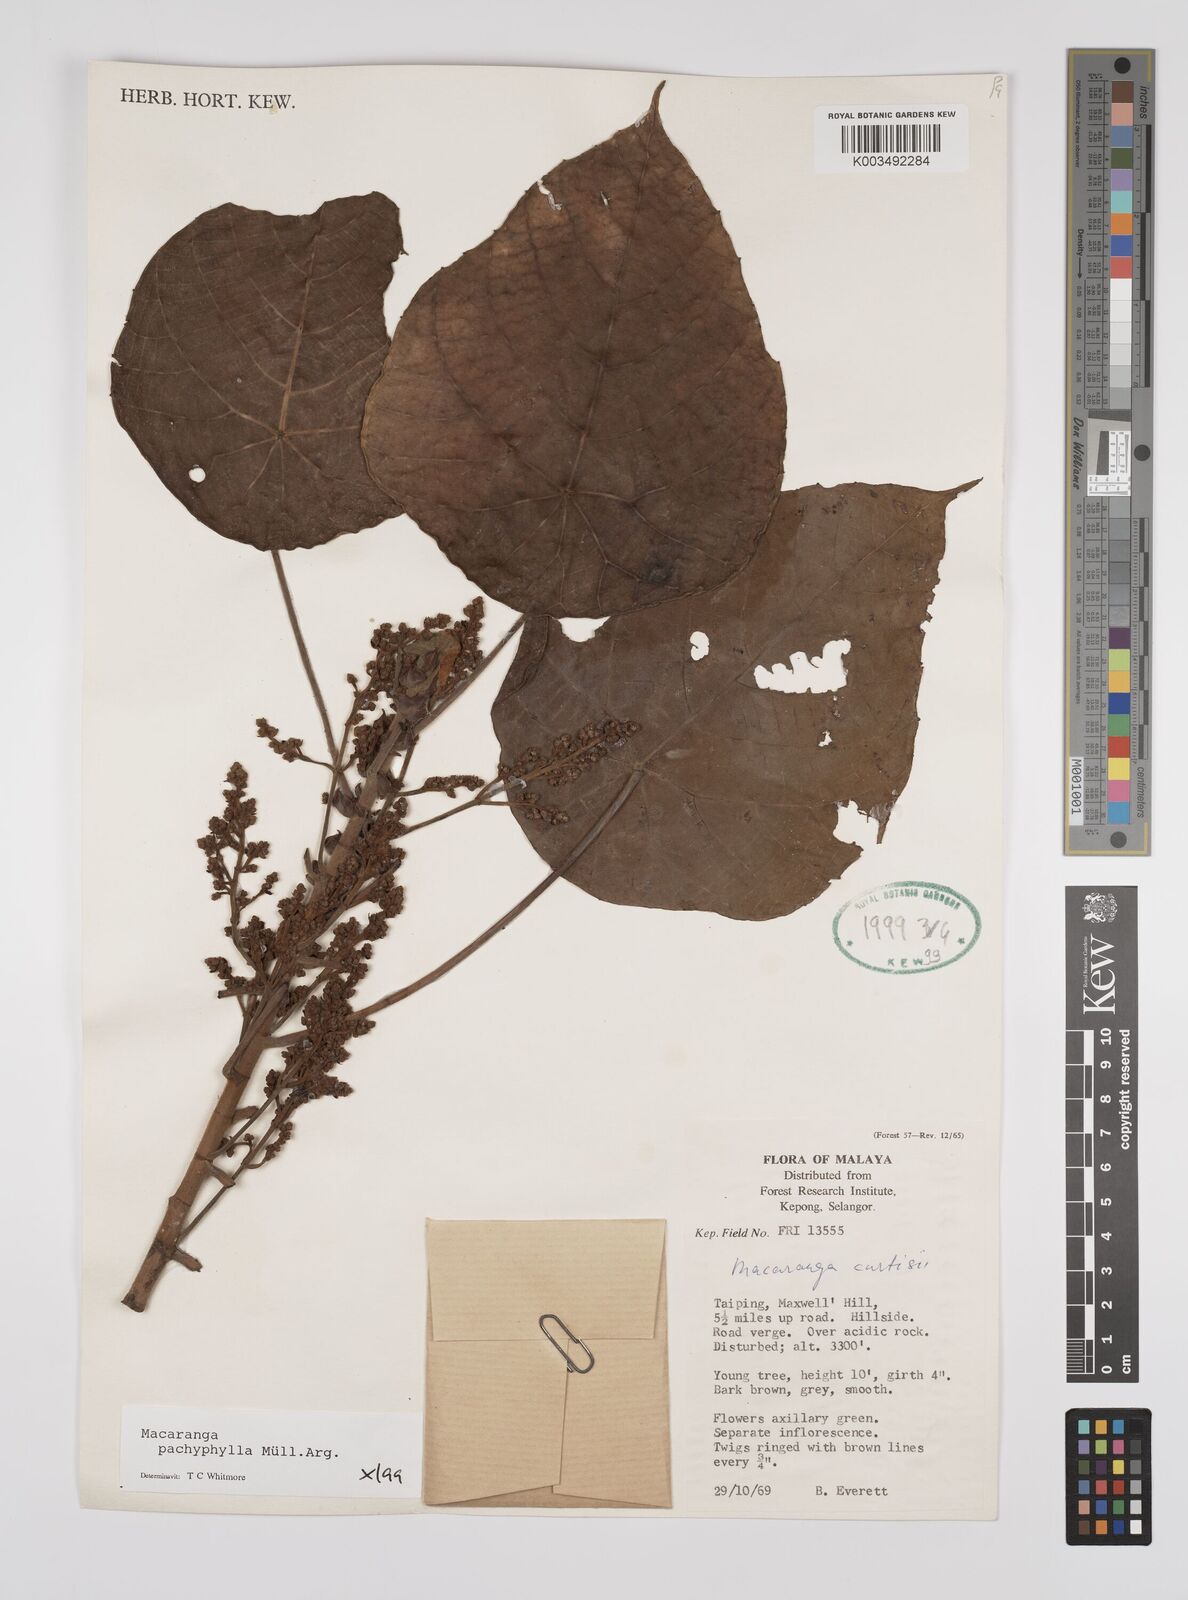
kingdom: Plantae
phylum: Tracheophyta
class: Magnoliopsida
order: Malpighiales
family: Euphorbiaceae
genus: Macaranga
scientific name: Macaranga pachyphylla
